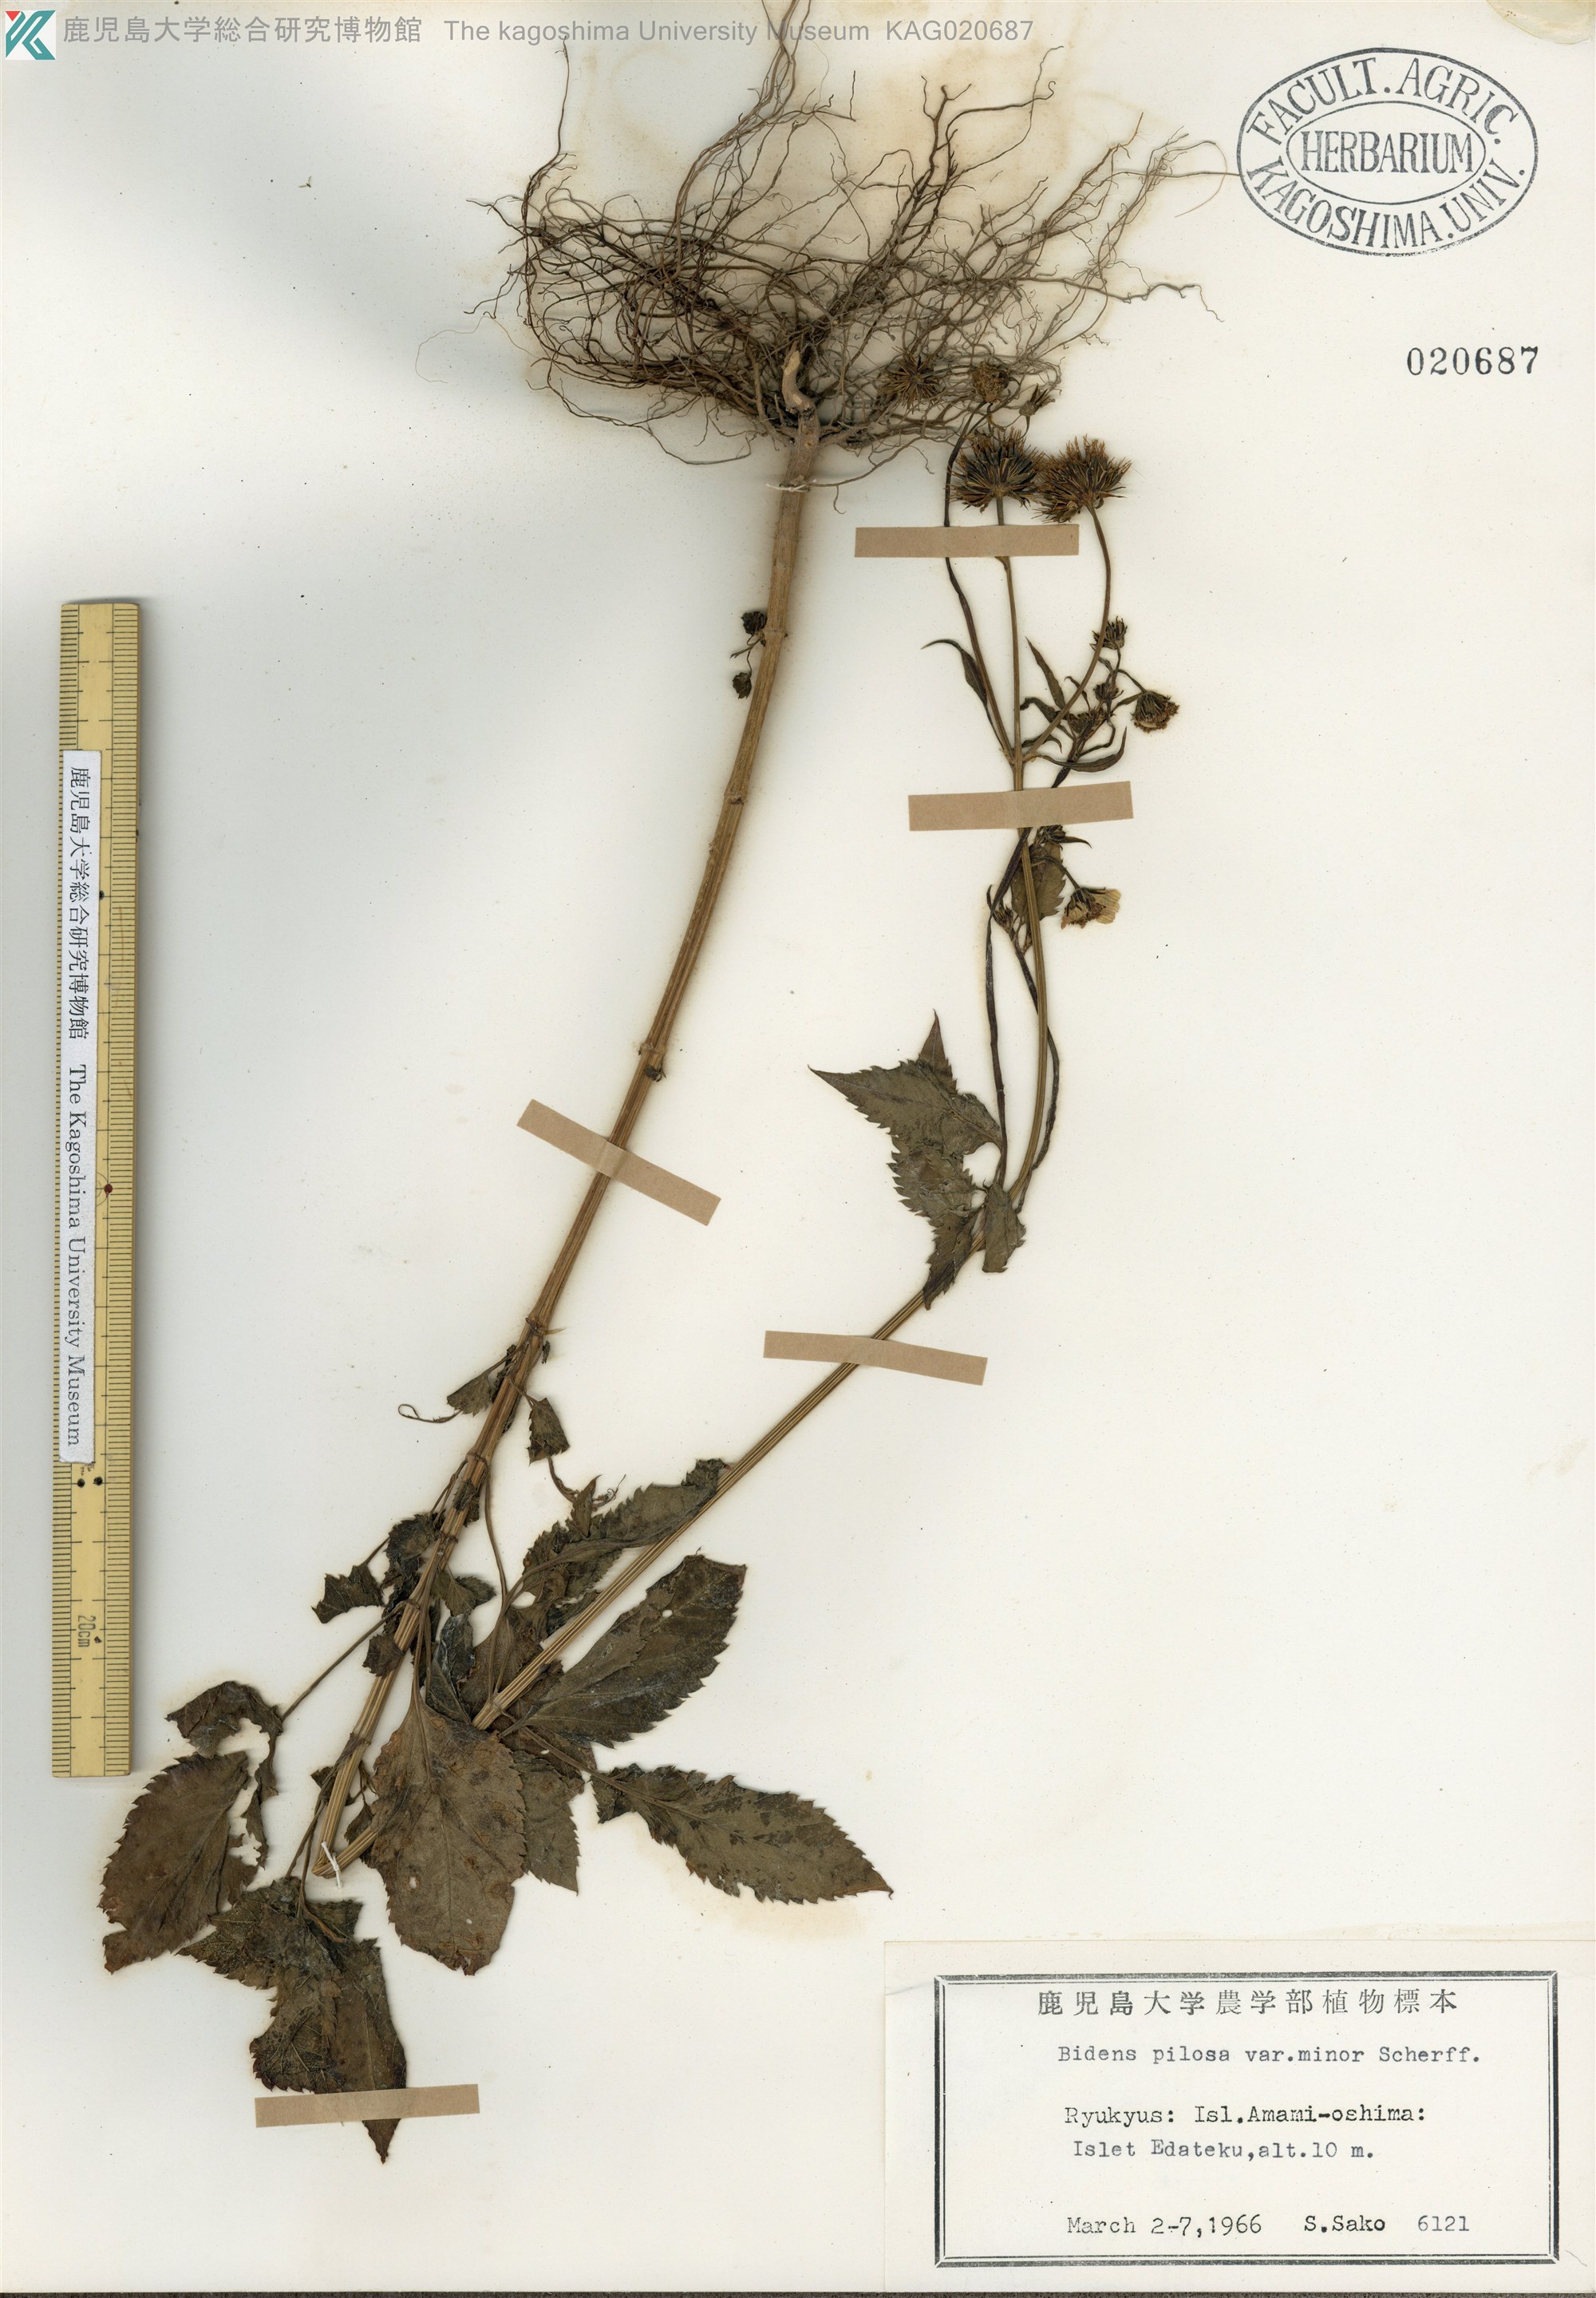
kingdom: Plantae
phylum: Tracheophyta
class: Magnoliopsida
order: Asterales
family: Asteraceae
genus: Bidens
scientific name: Bidens pilosa
